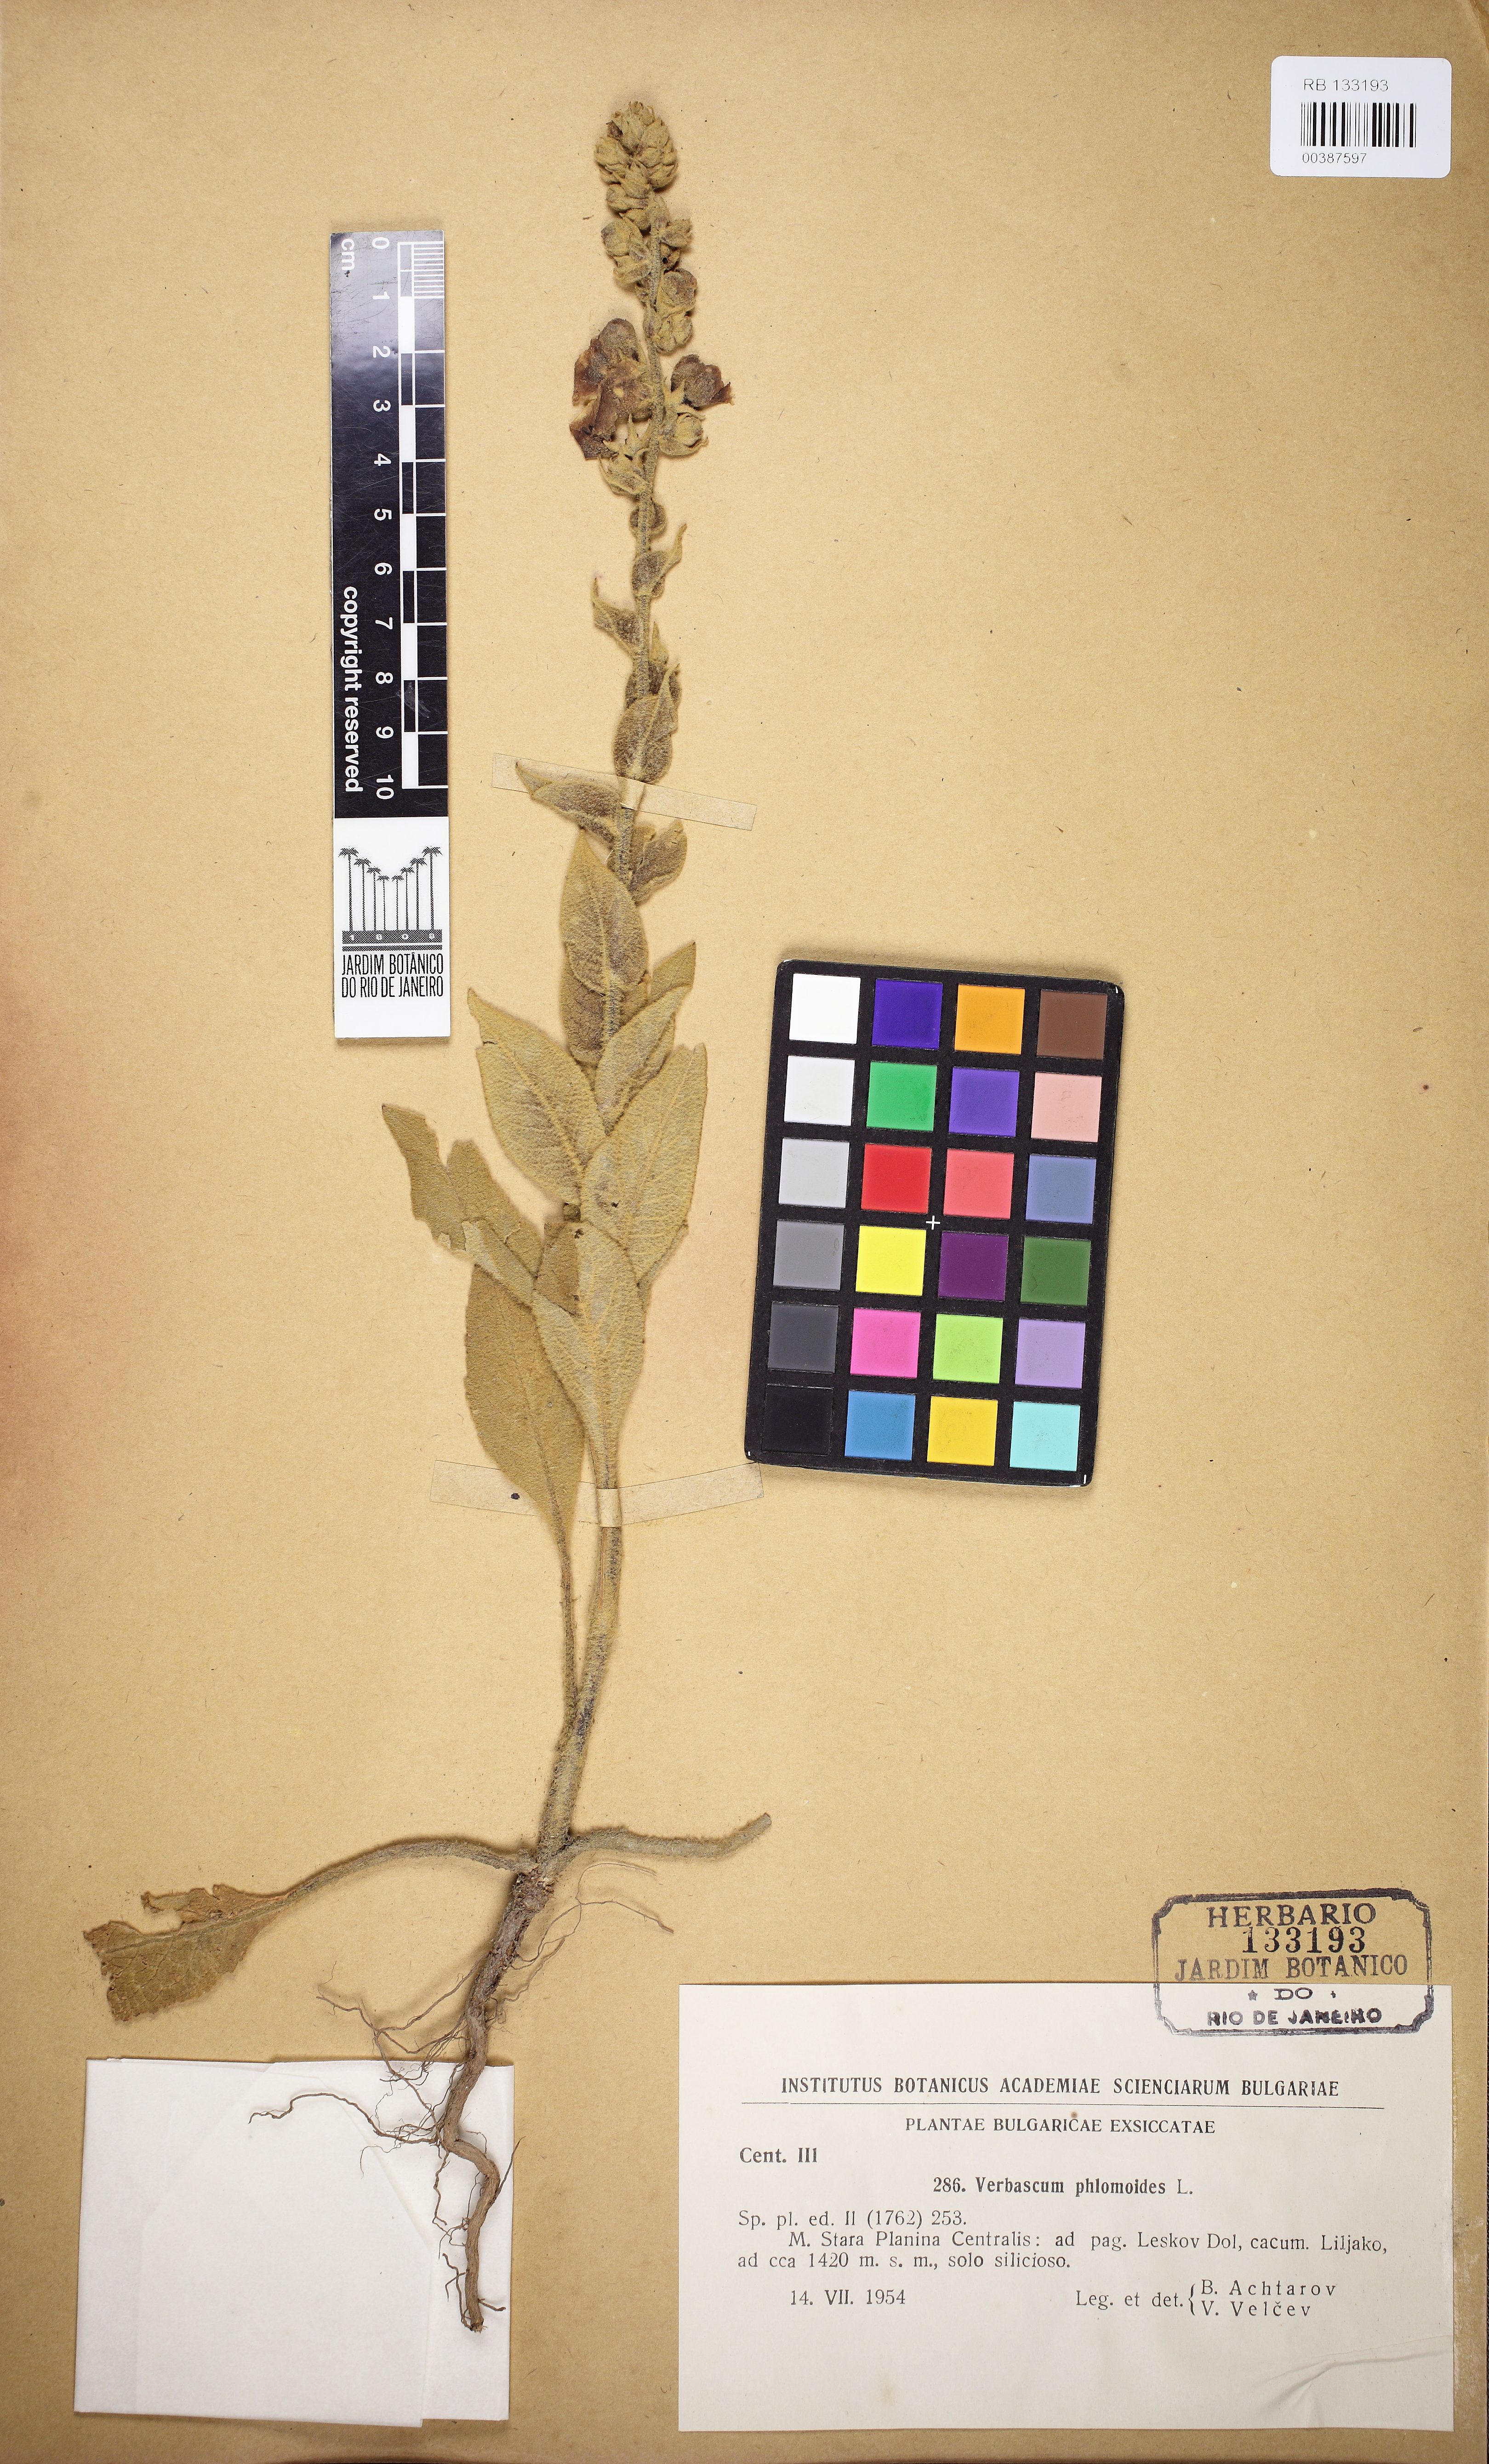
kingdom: Plantae
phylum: Tracheophyta
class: Magnoliopsida
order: Lamiales
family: Scrophulariaceae
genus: Verbascum
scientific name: Verbascum phlomoides
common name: Orange mullein
